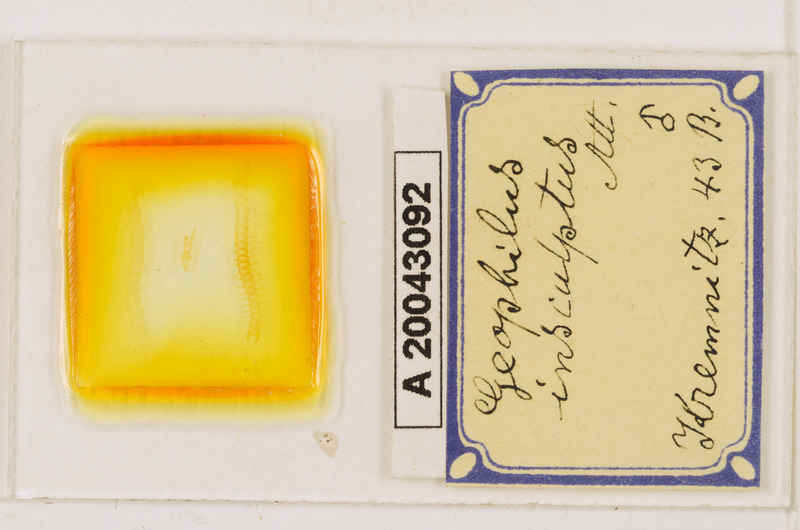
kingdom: Animalia
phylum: Arthropoda
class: Chilopoda
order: Geophilomorpha
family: Geophilidae
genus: Geophilus
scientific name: Geophilus insculptus
